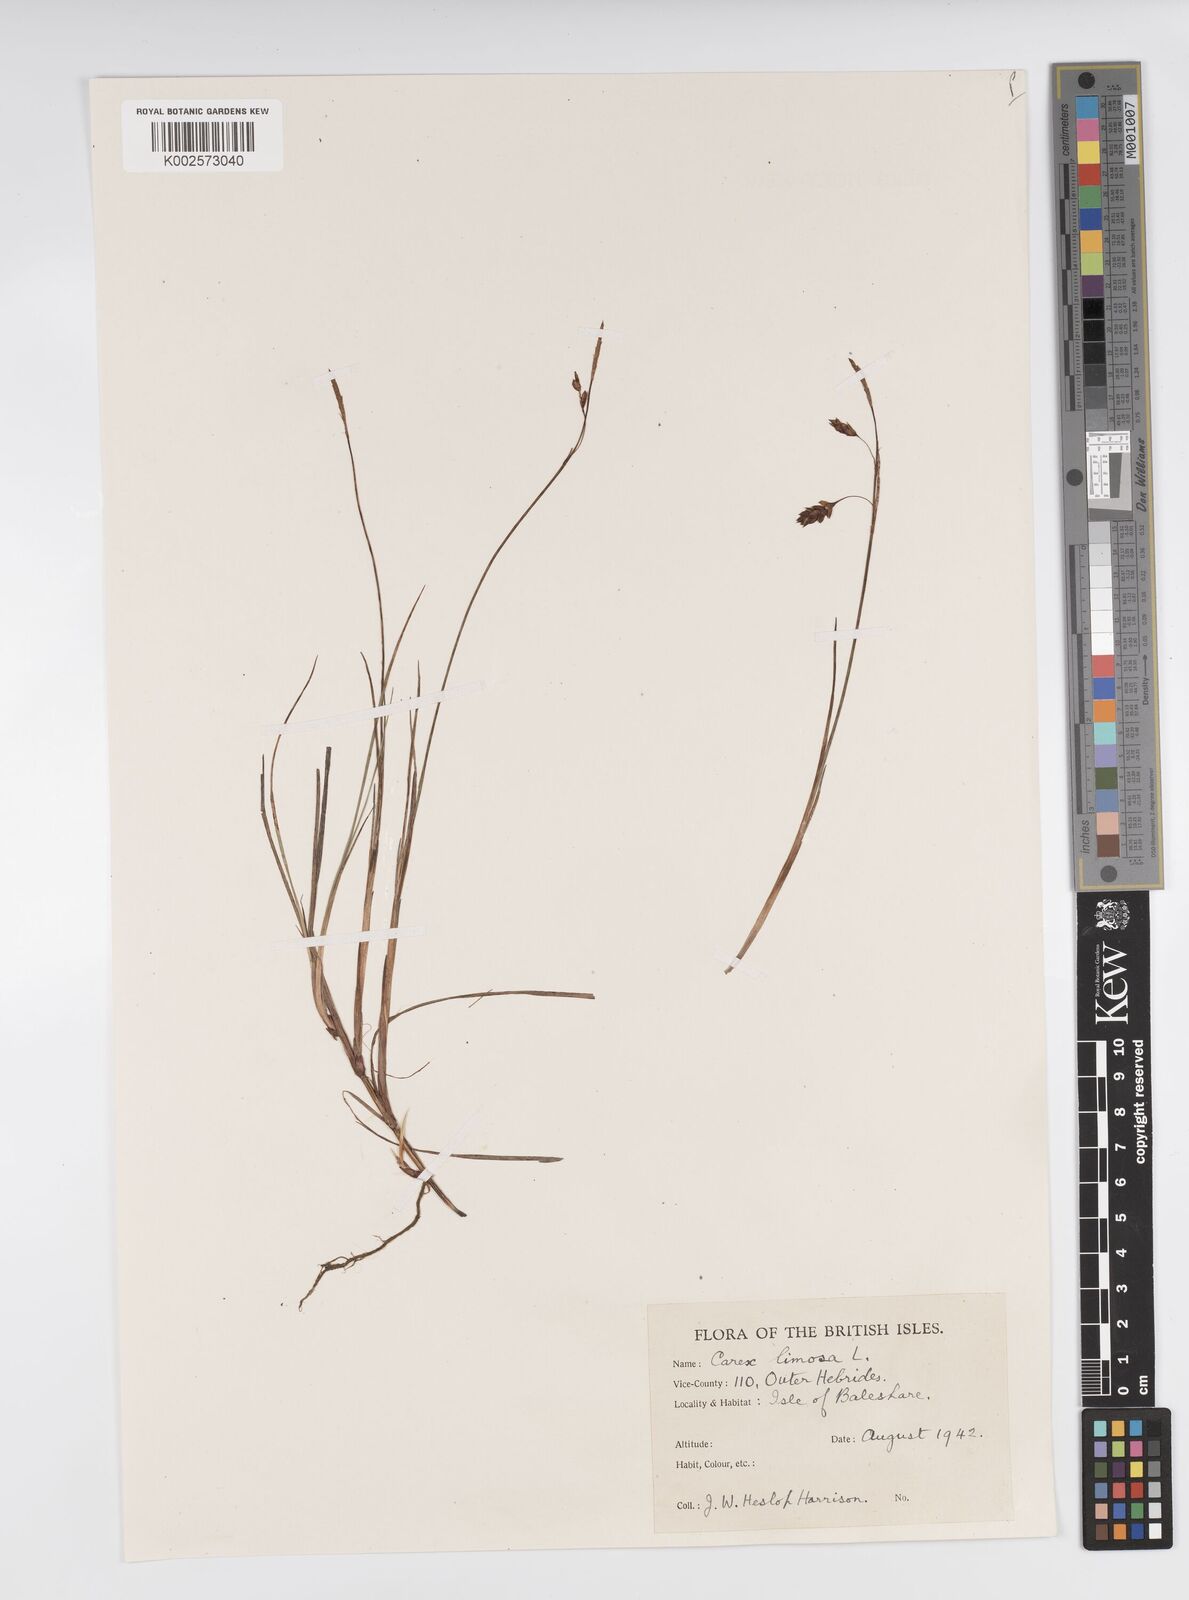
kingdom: Plantae
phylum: Tracheophyta
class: Liliopsida
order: Poales
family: Cyperaceae
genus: Carex
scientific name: Carex limosa
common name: Bog sedge
